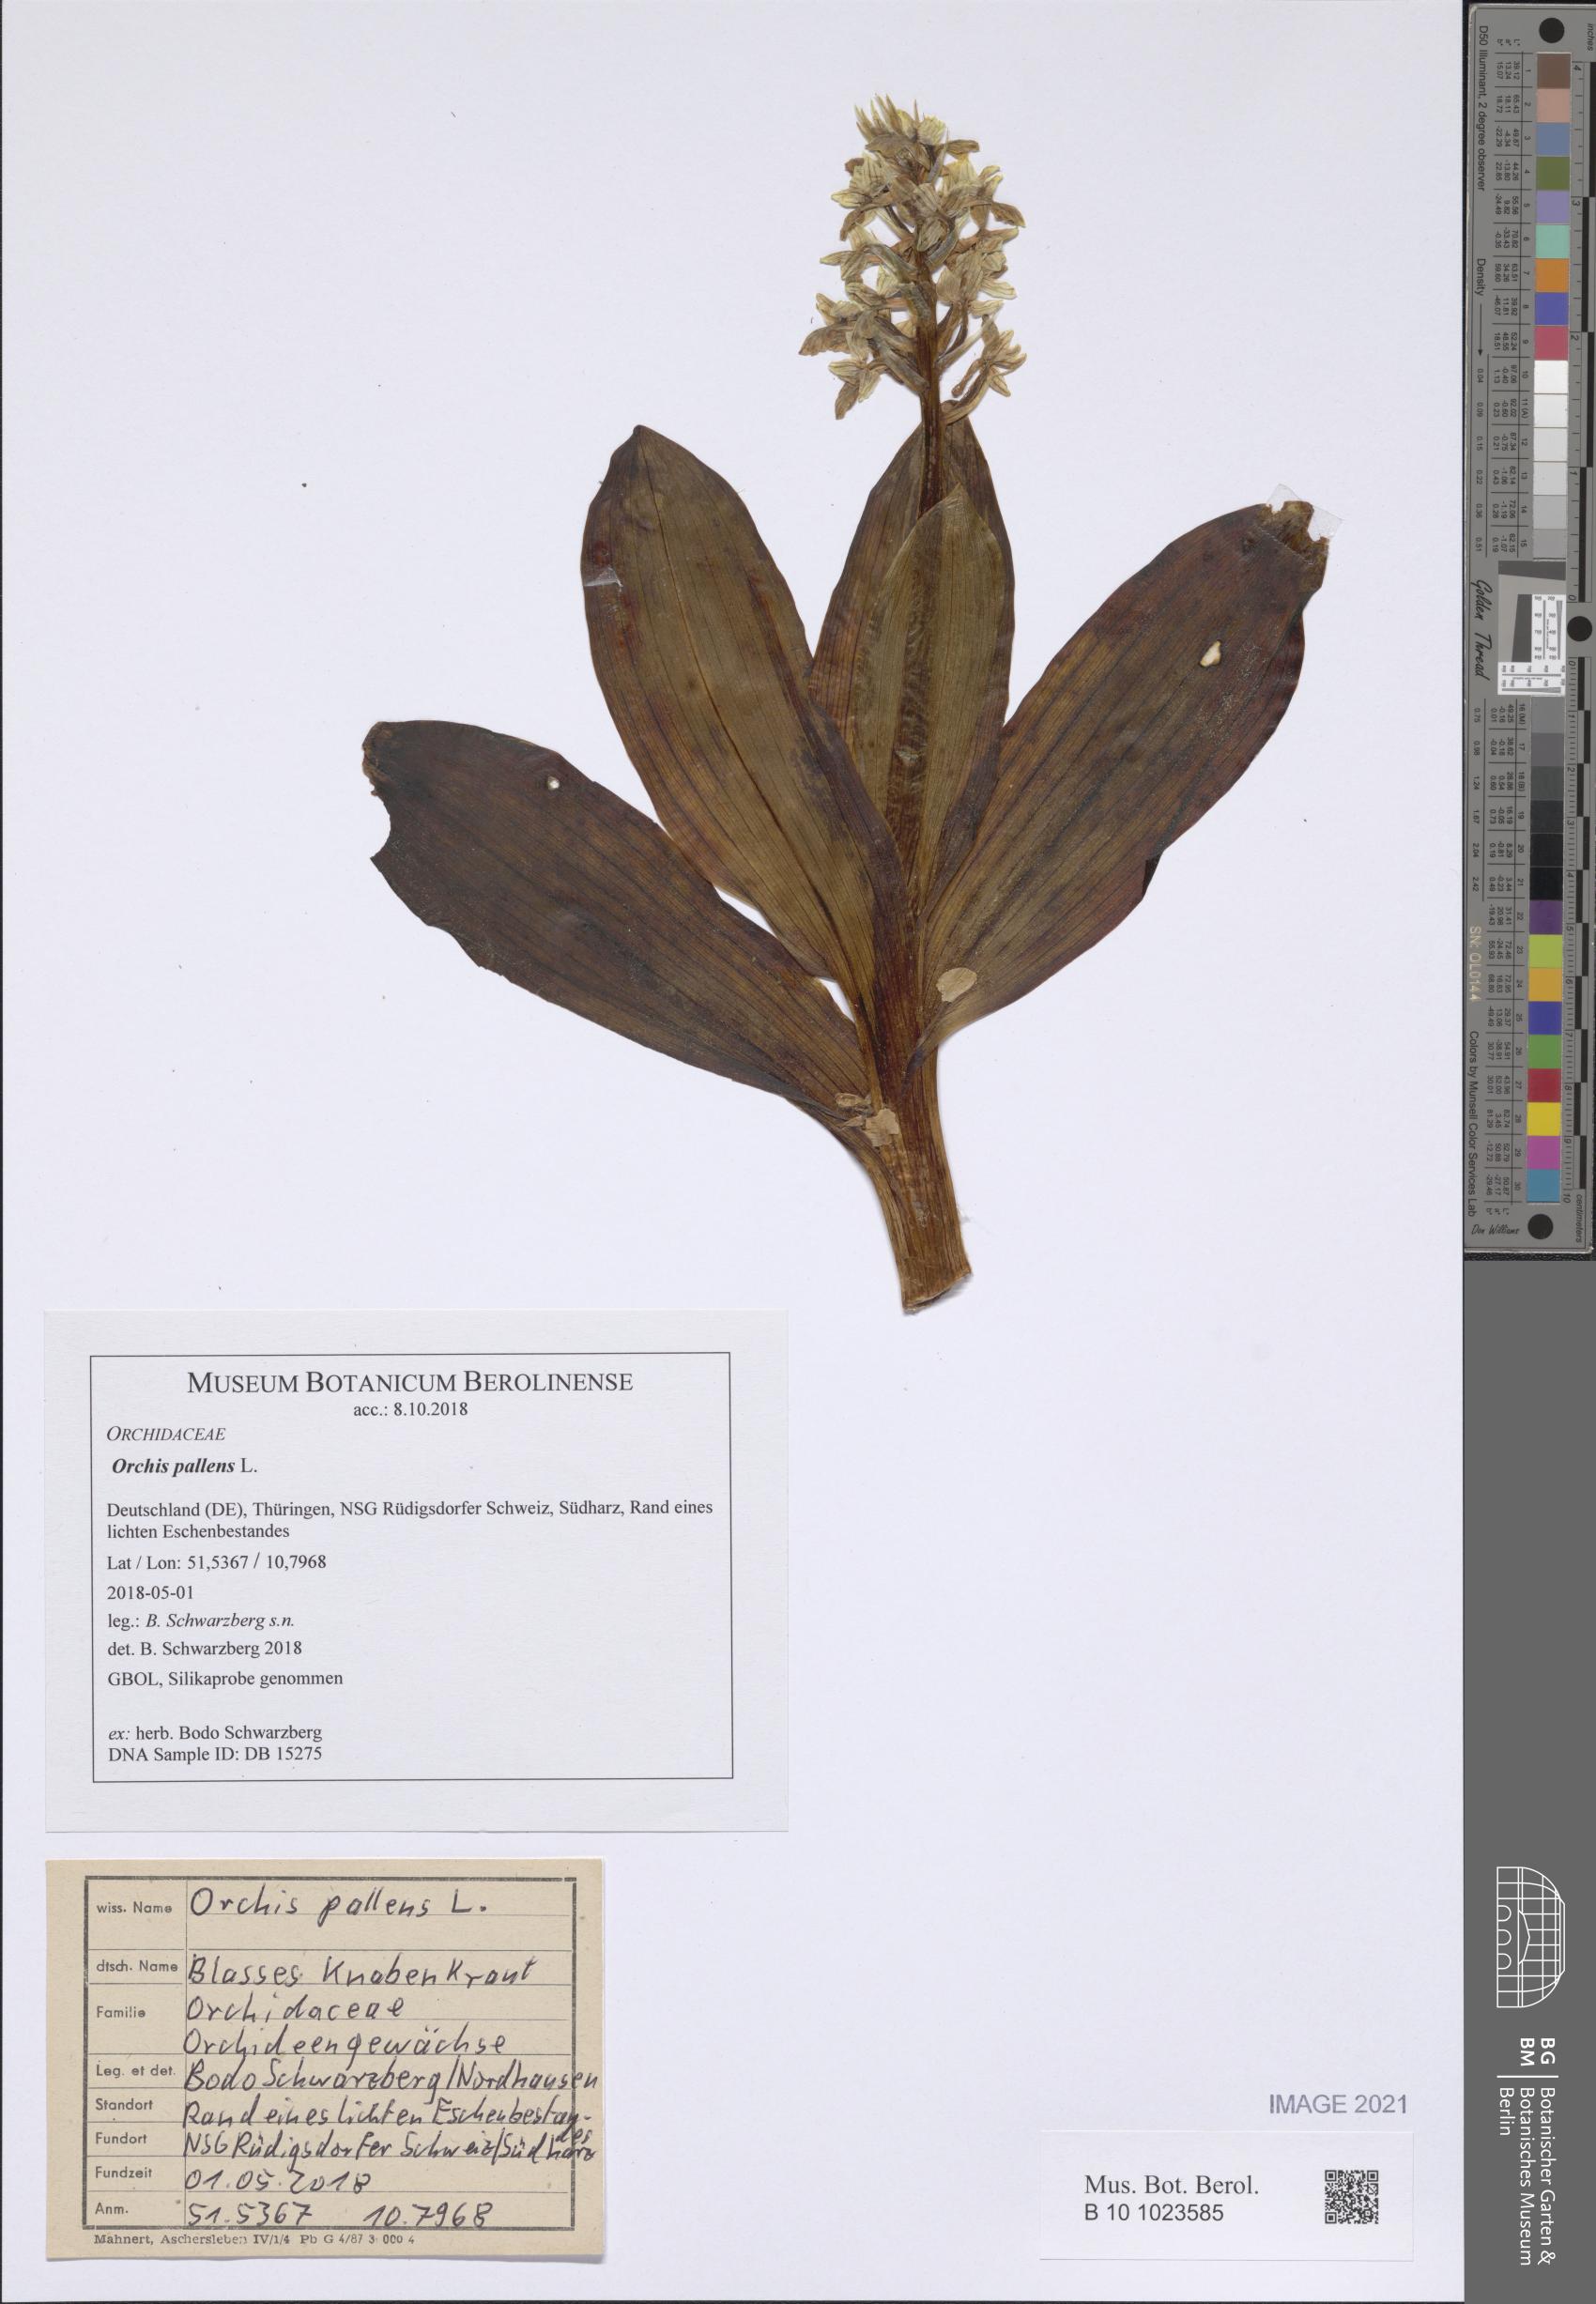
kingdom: Plantae
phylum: Tracheophyta
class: Liliopsida
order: Asparagales
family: Orchidaceae
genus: Orchis
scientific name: Orchis pallens
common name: Pale-flowered orchid
